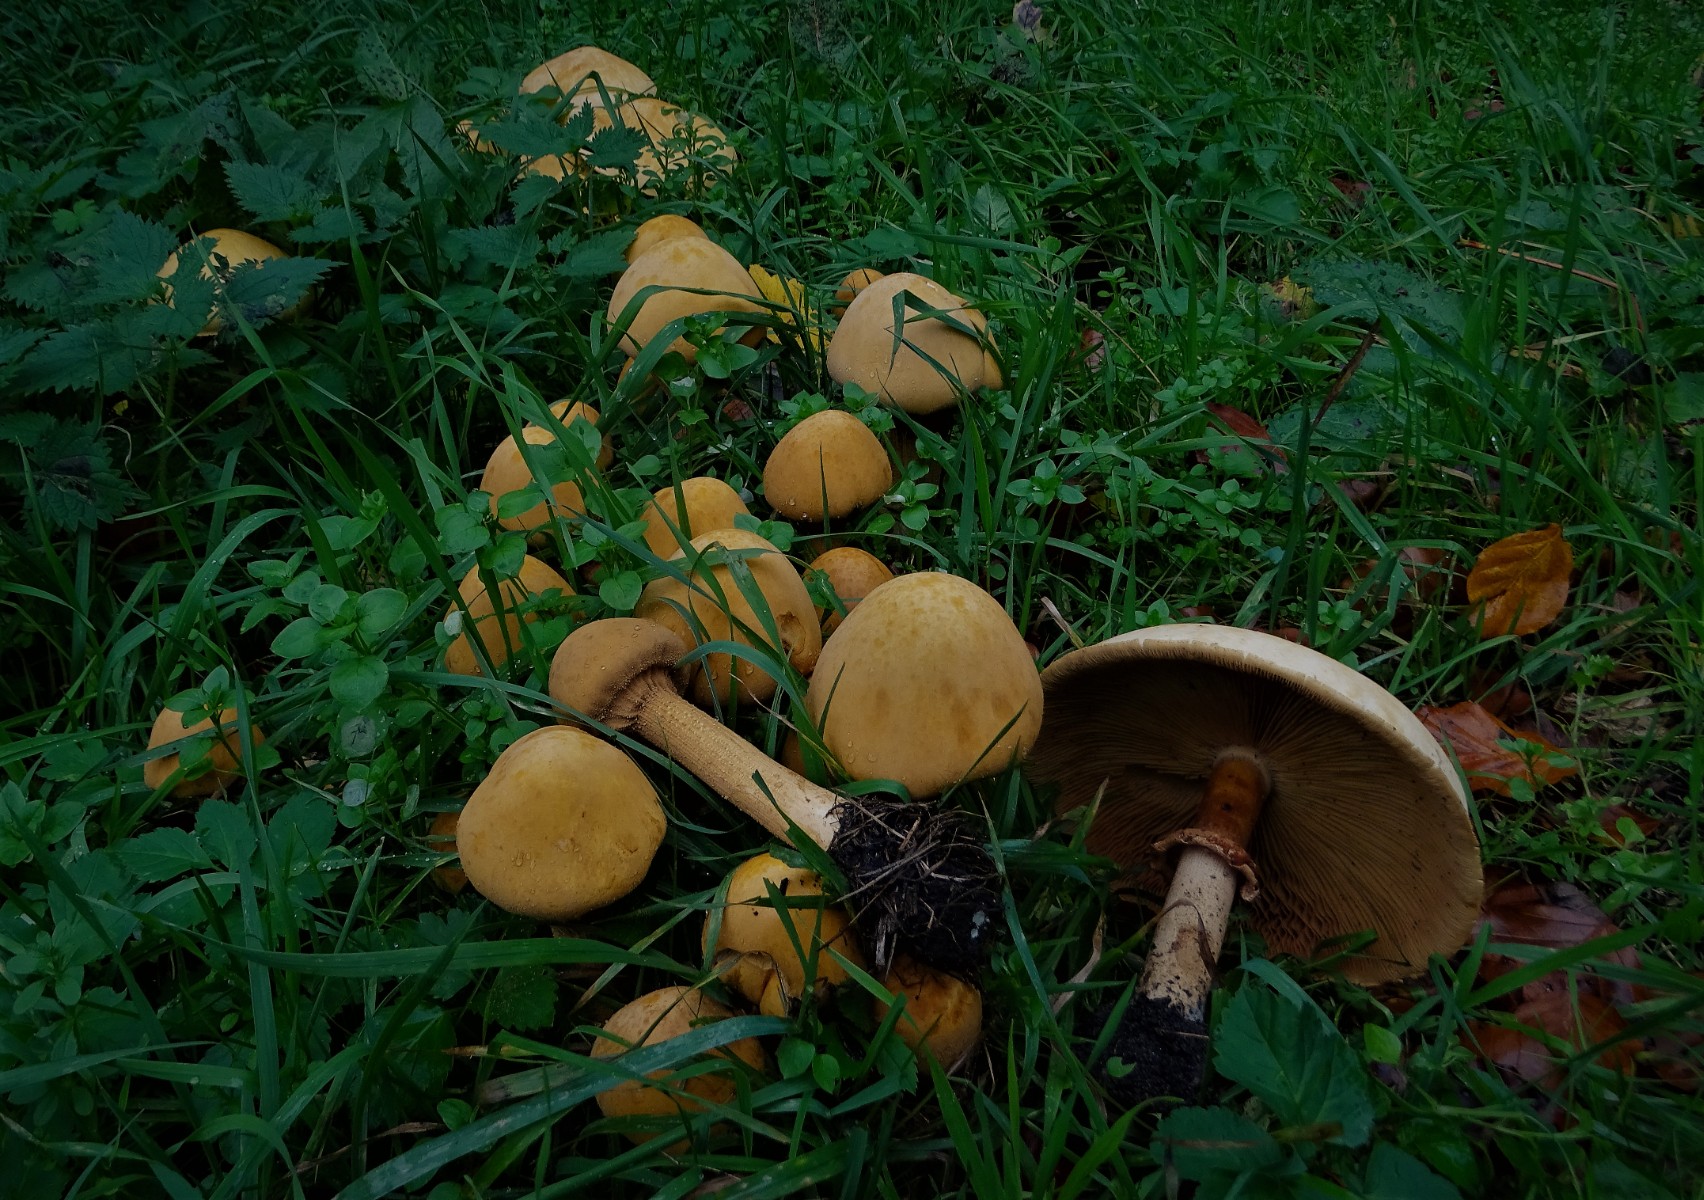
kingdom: Fungi
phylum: Basidiomycota
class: Agaricomycetes
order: Agaricales
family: Tricholomataceae
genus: Phaeolepiota
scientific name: Phaeolepiota aurea
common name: gyldenhat
